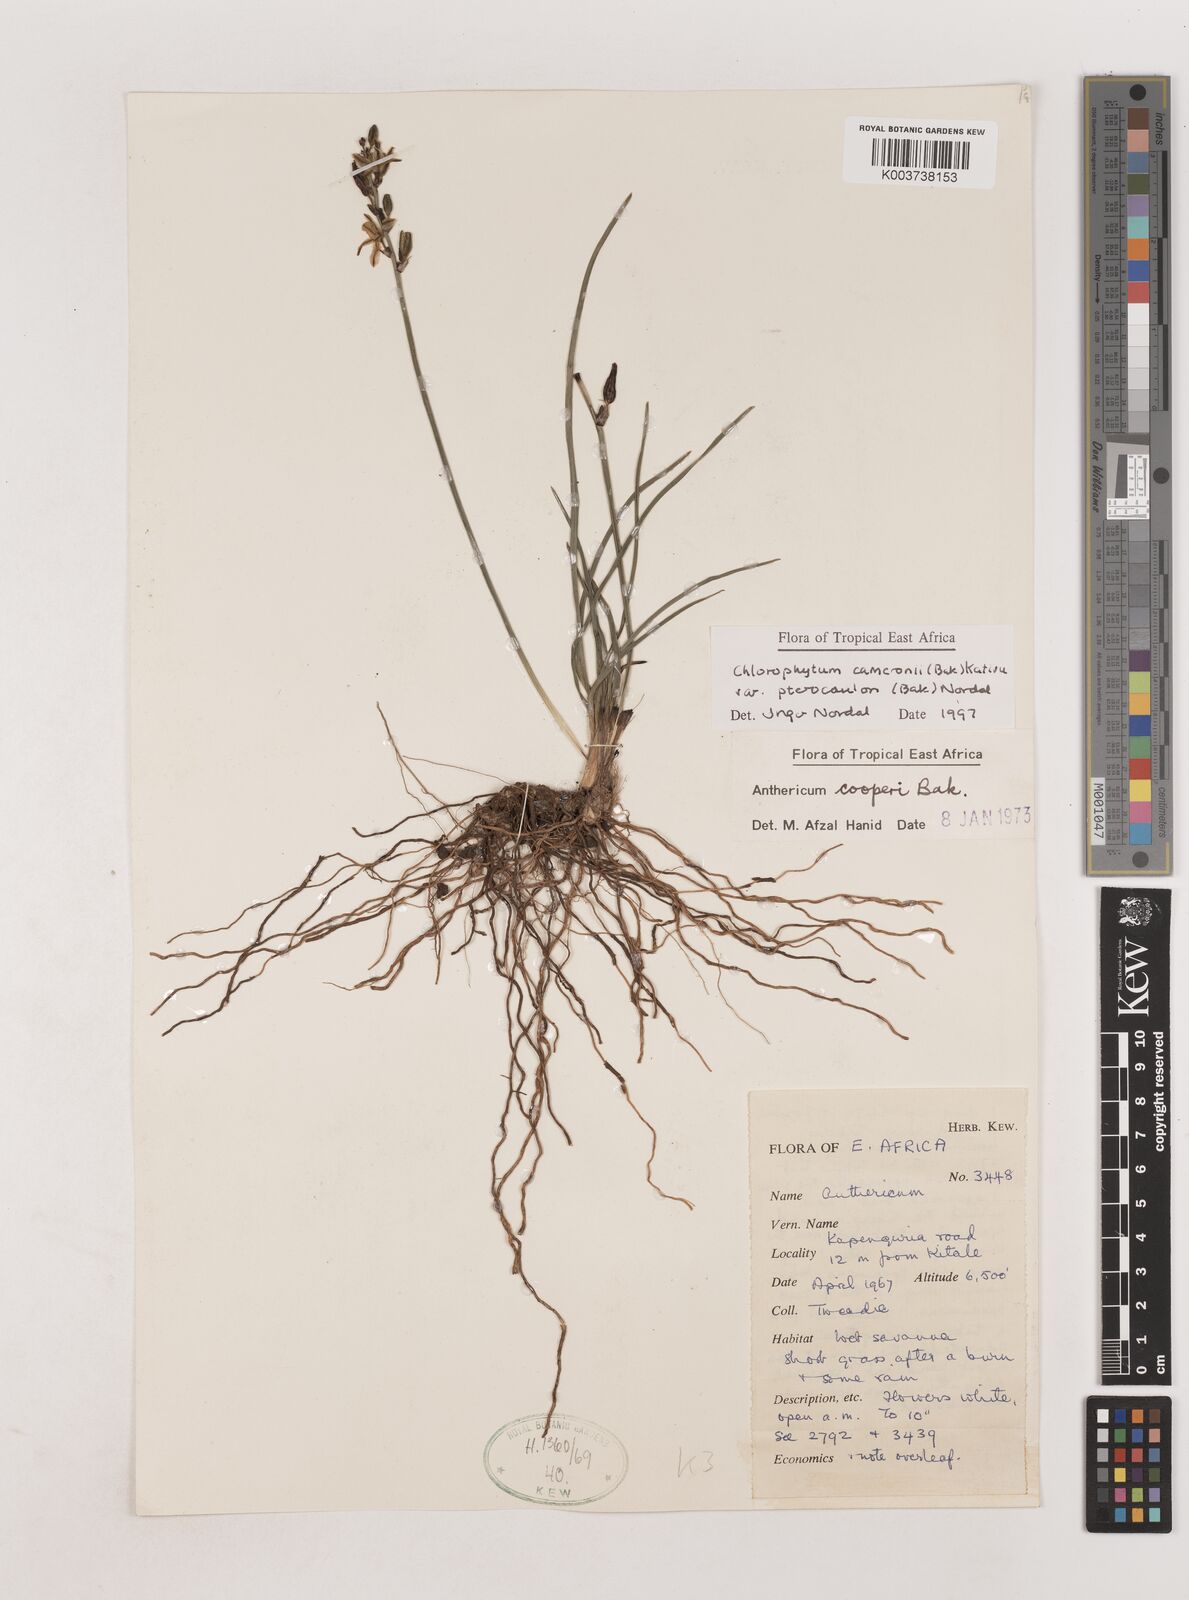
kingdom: Plantae
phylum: Tracheophyta
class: Liliopsida
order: Asparagales
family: Asparagaceae
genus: Chlorophytum
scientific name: Chlorophytum cameronii
